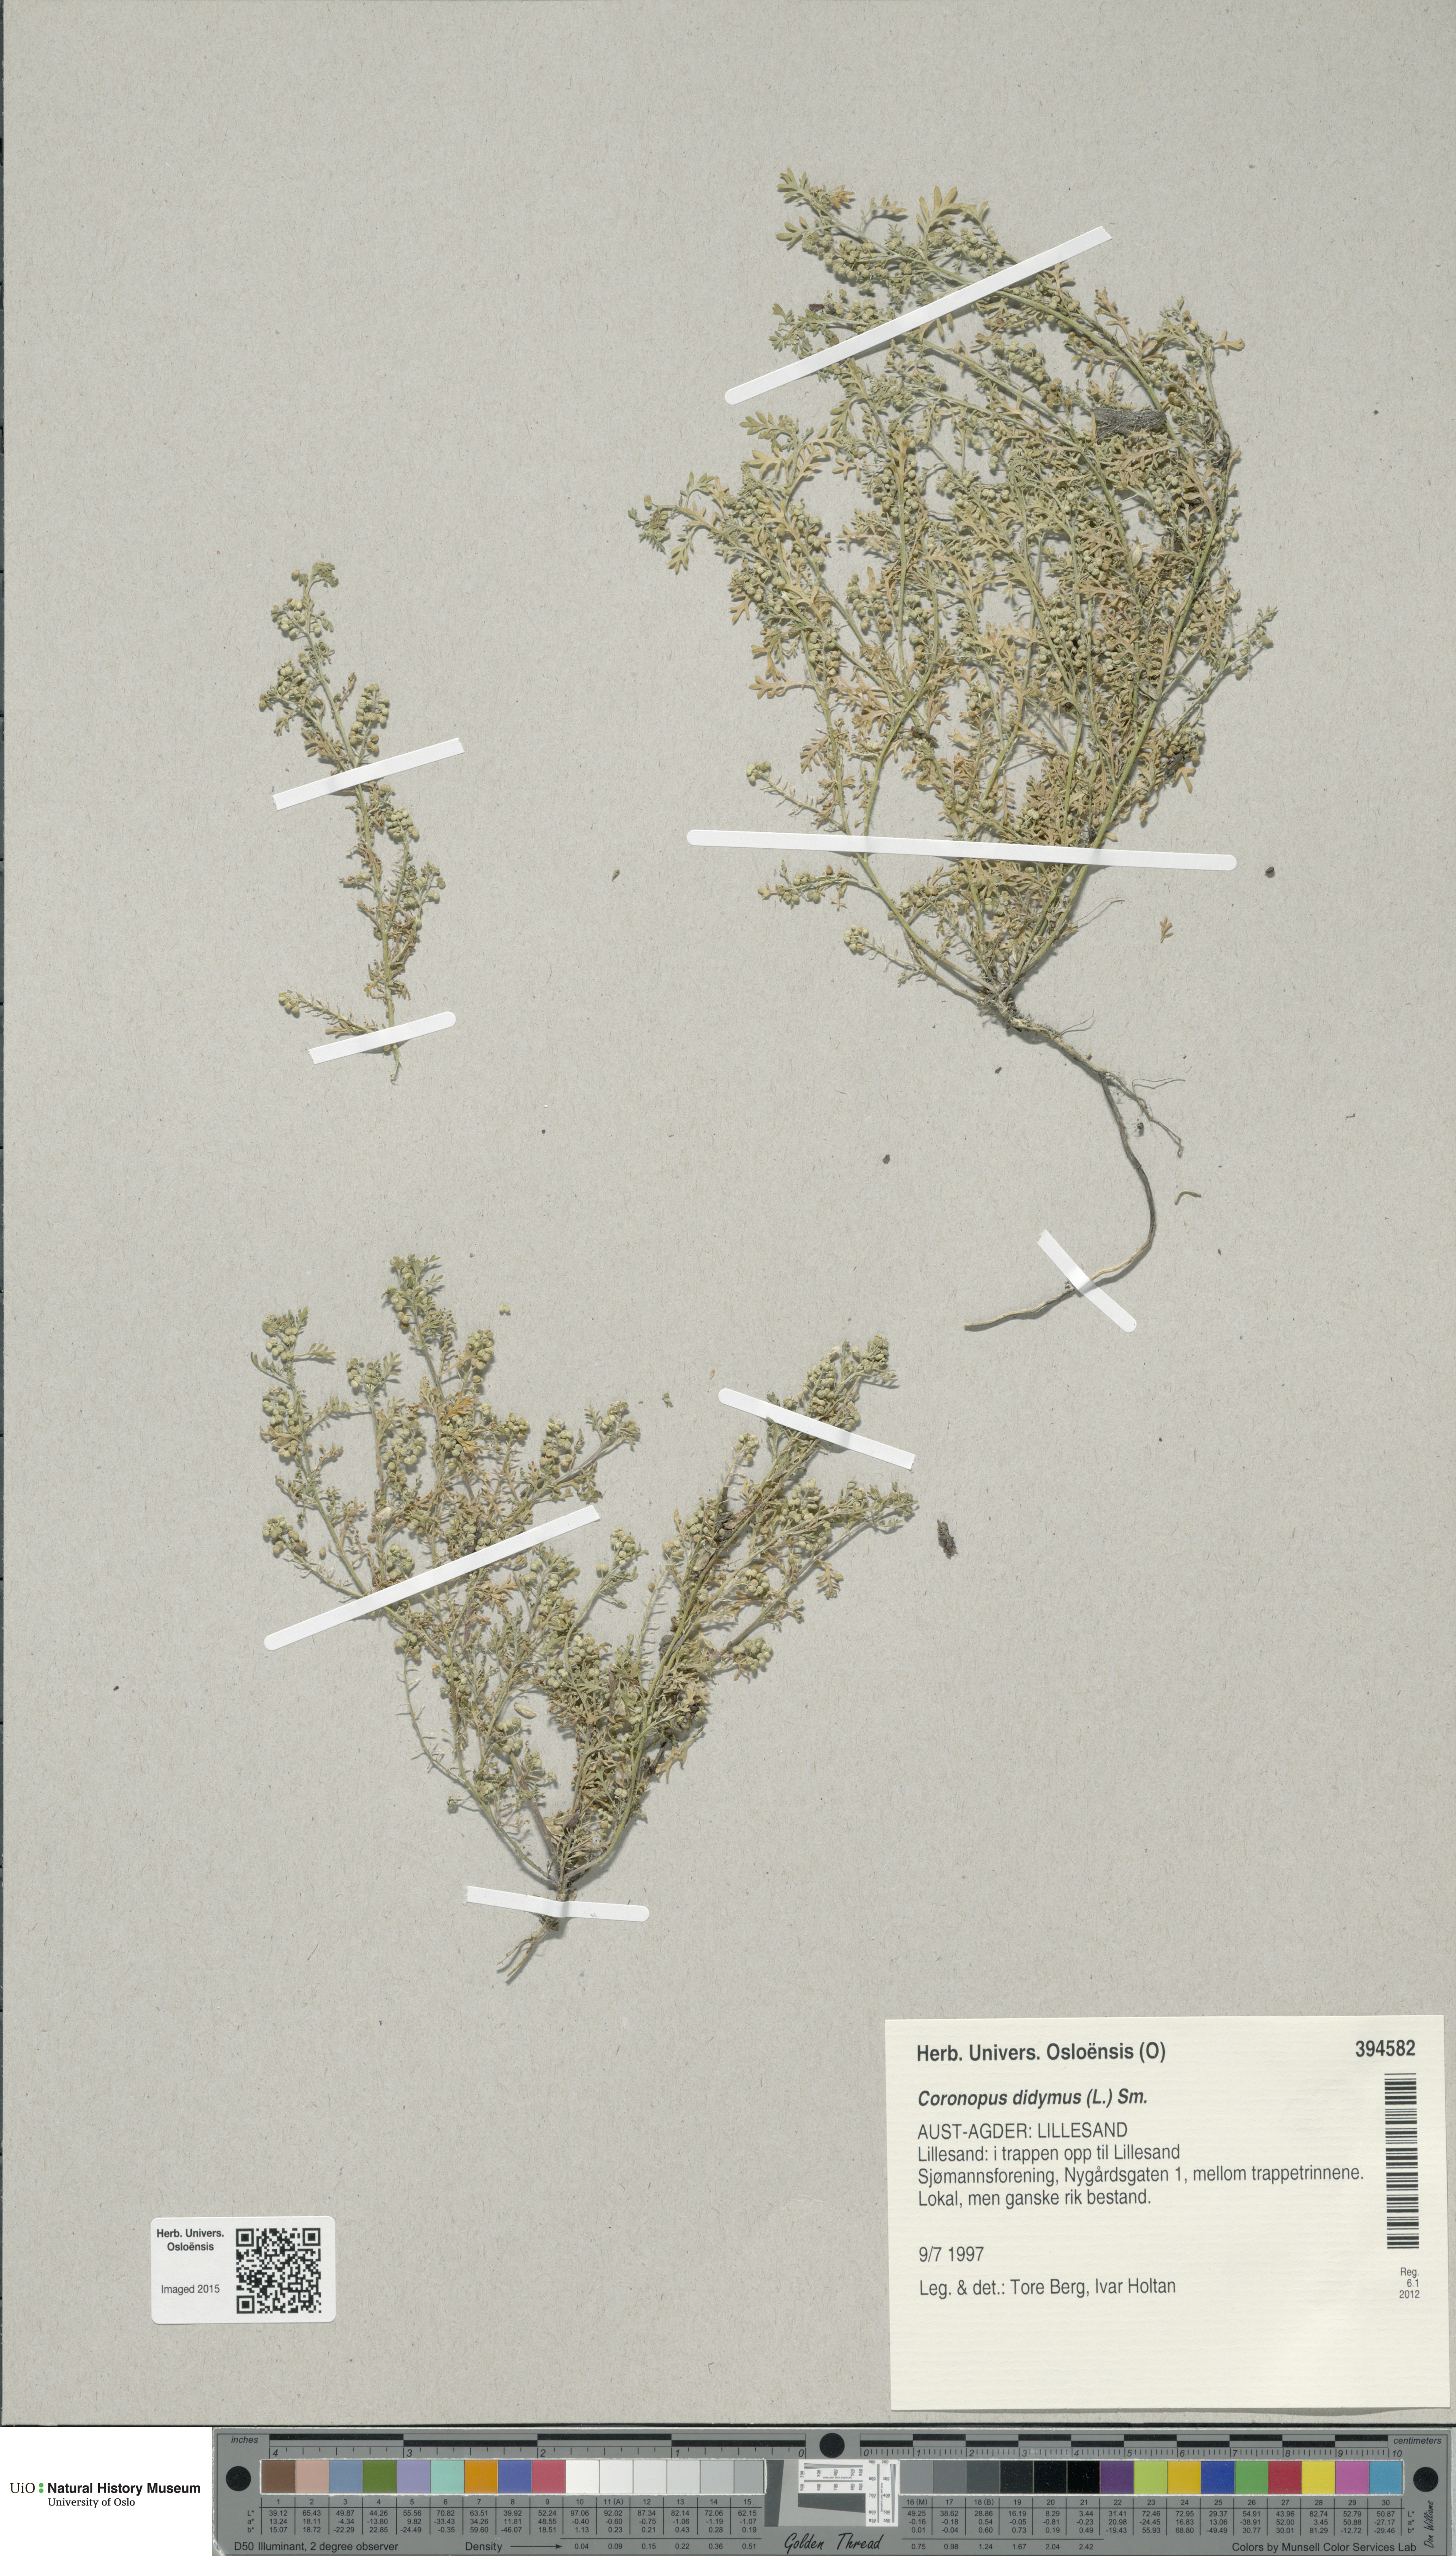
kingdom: Plantae
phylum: Tracheophyta
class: Magnoliopsida
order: Brassicales
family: Brassicaceae
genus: Lepidium
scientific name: Lepidium didymum
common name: Lesser swinecress
